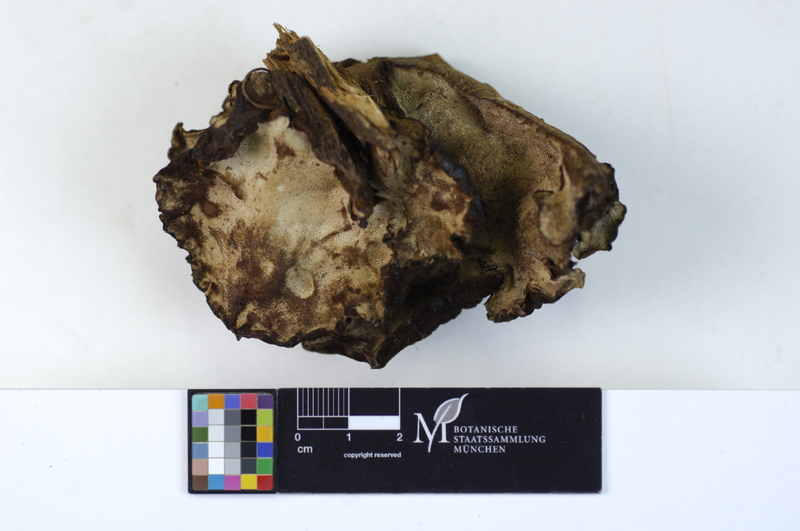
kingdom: Plantae
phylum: Tracheophyta
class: Pinopsida
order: Pinales
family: Pinaceae
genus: Picea
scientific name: Picea
